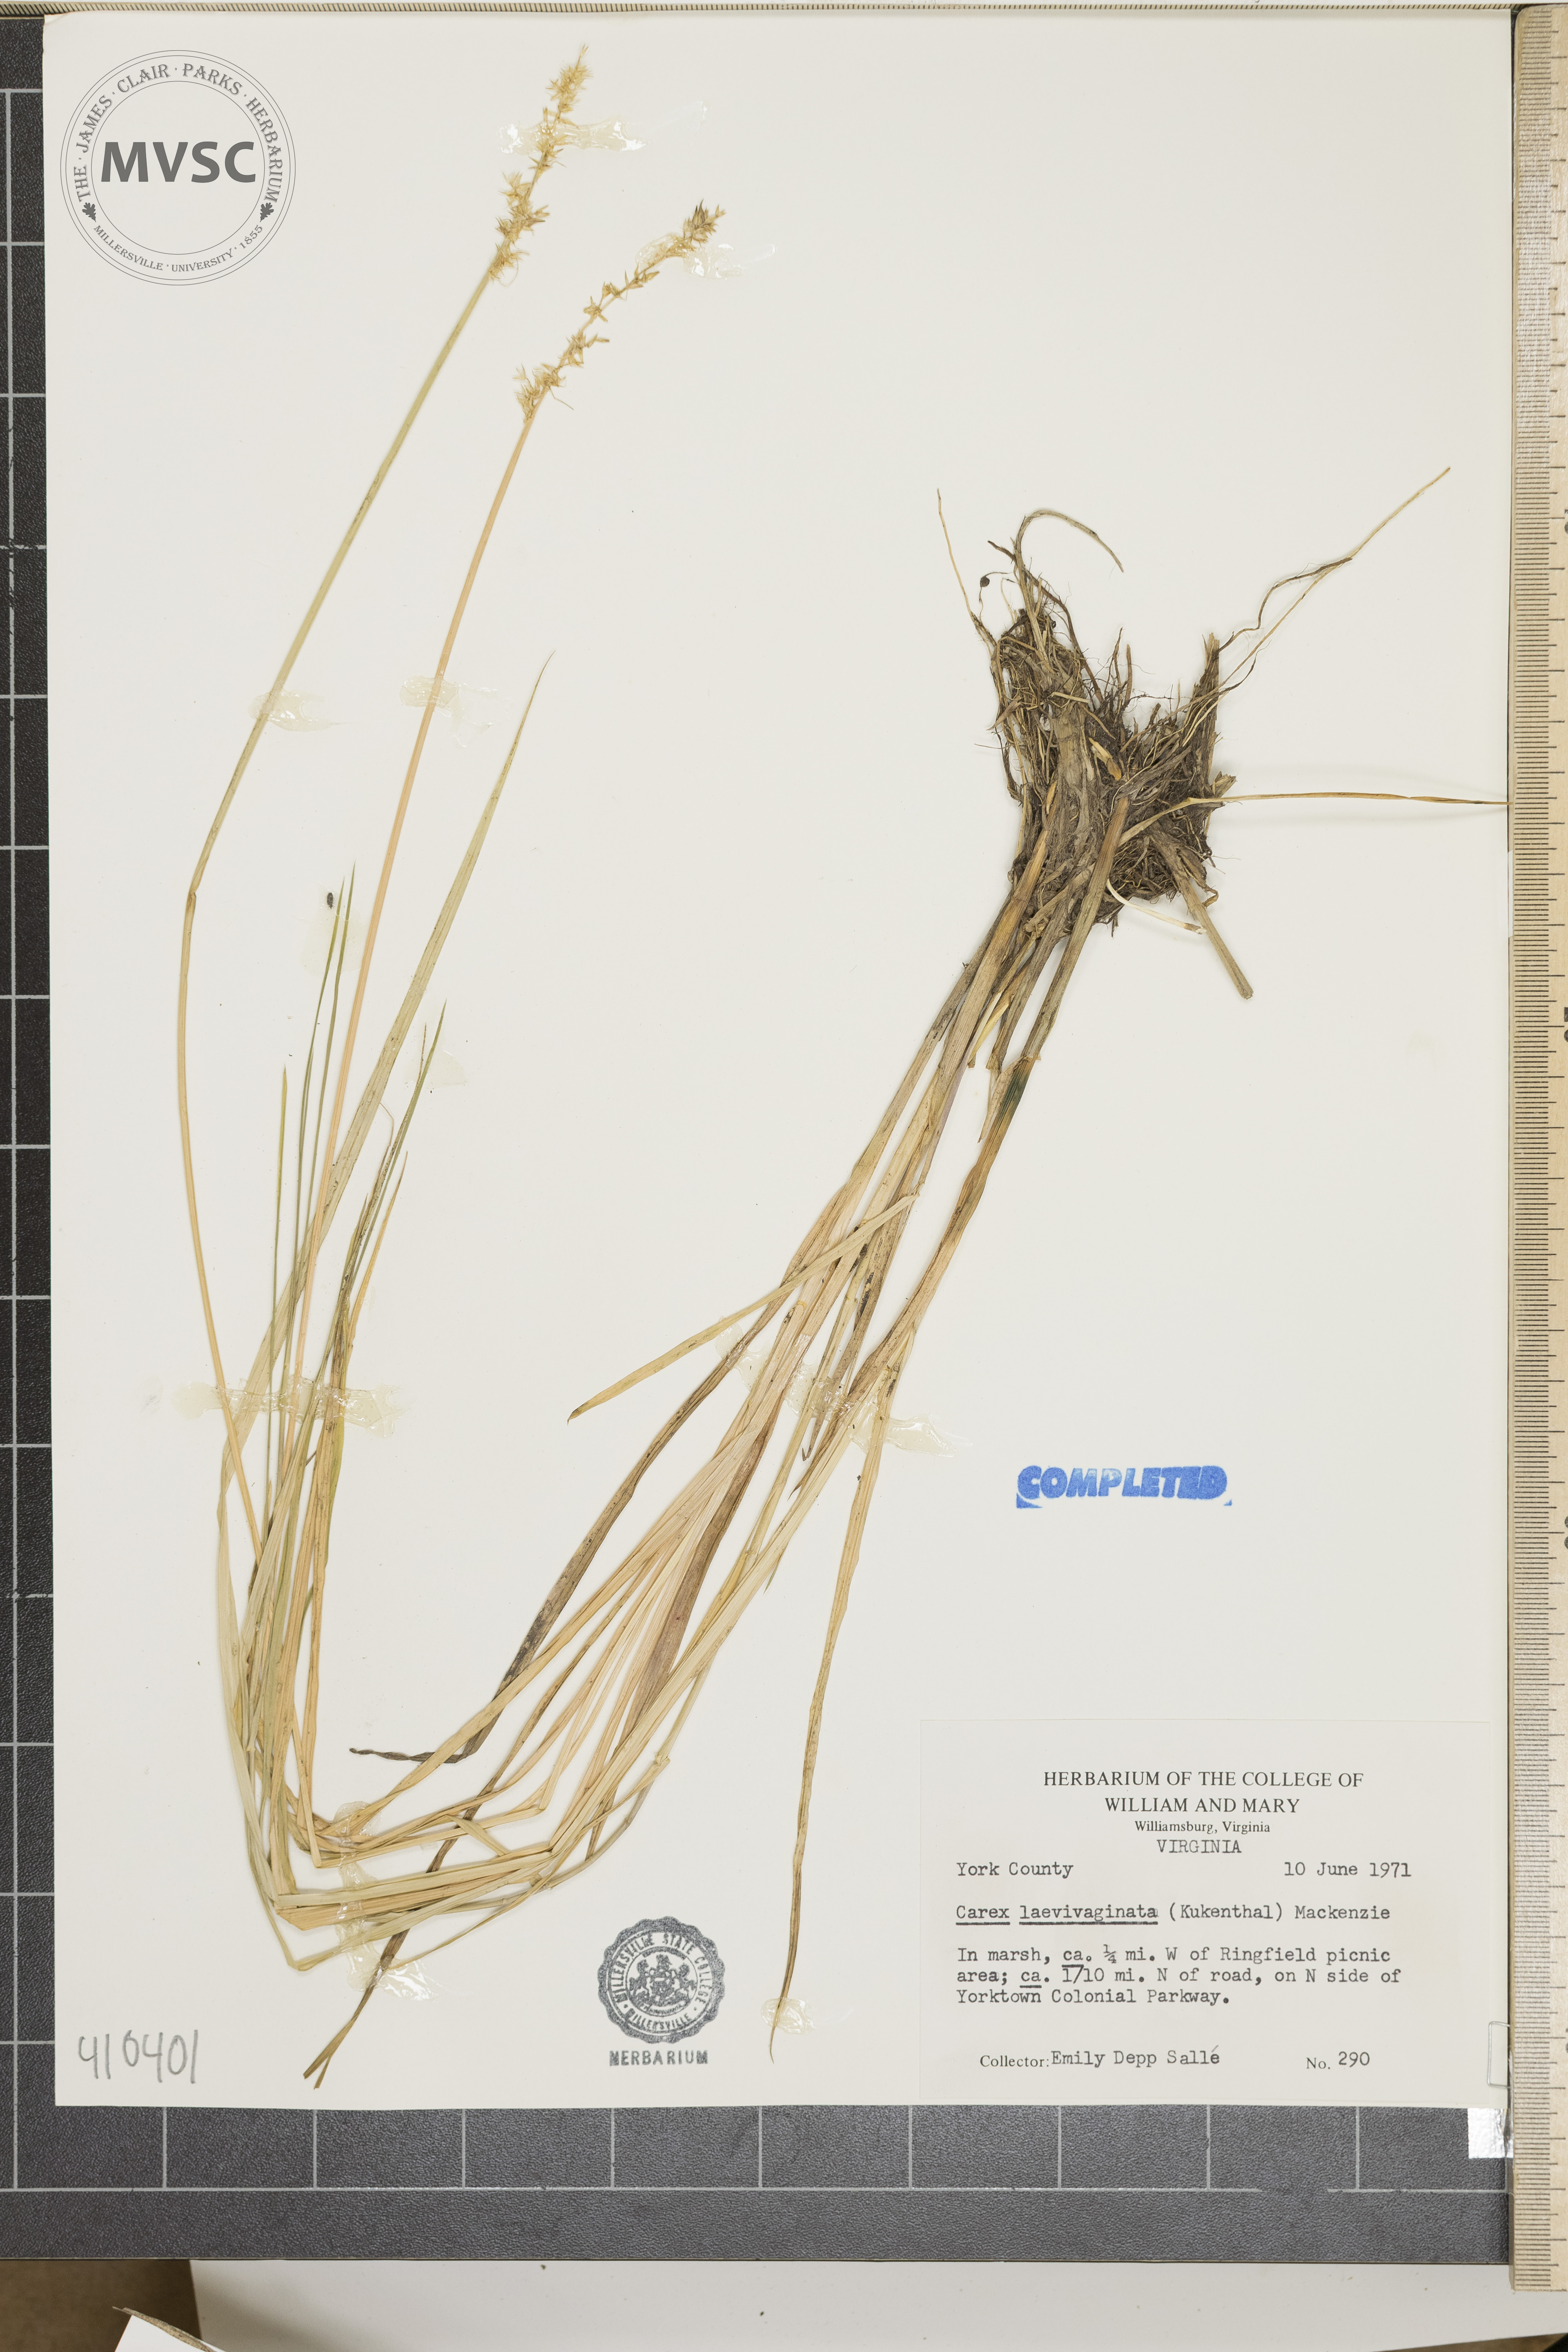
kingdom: Plantae
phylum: Tracheophyta
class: Liliopsida
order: Poales
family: Cyperaceae
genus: Carex
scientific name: Carex laevivaginata
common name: Smooth-sheathed fox sedge
